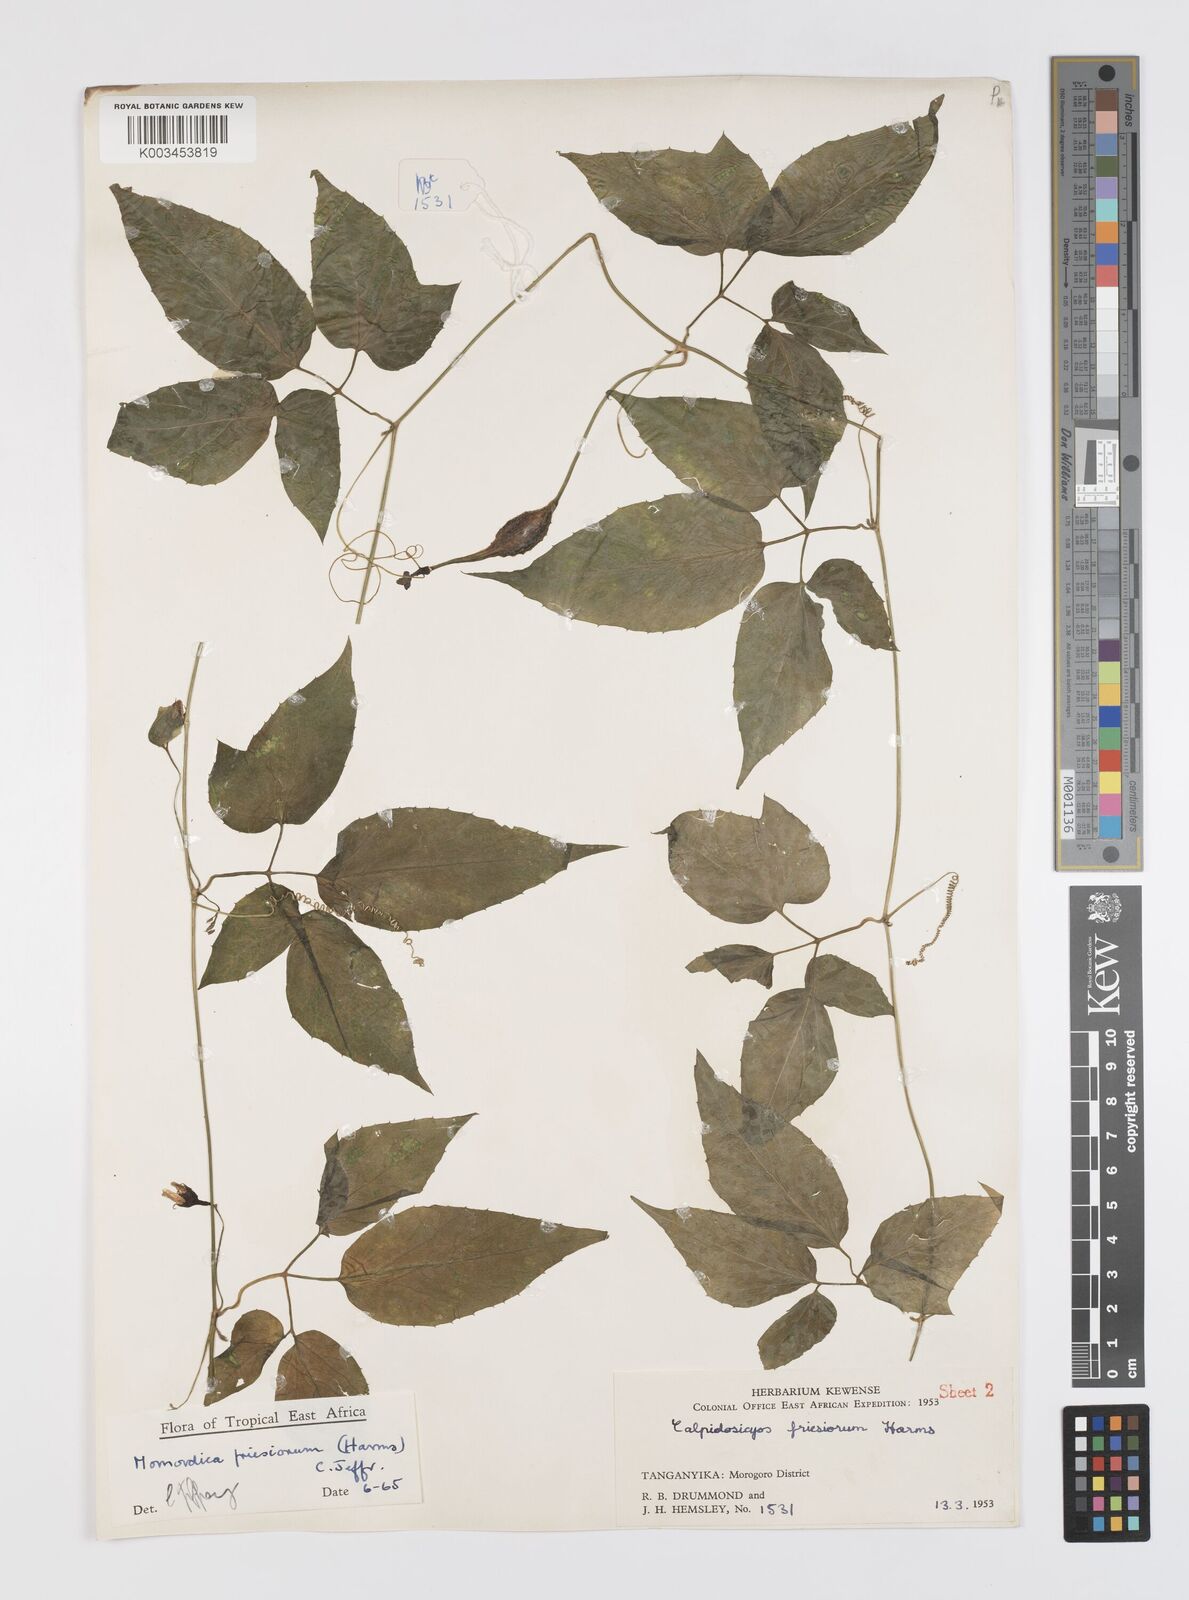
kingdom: Plantae
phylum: Tracheophyta
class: Magnoliopsida
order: Cucurbitales
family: Cucurbitaceae
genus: Momordica
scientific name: Momordica friesiorum
